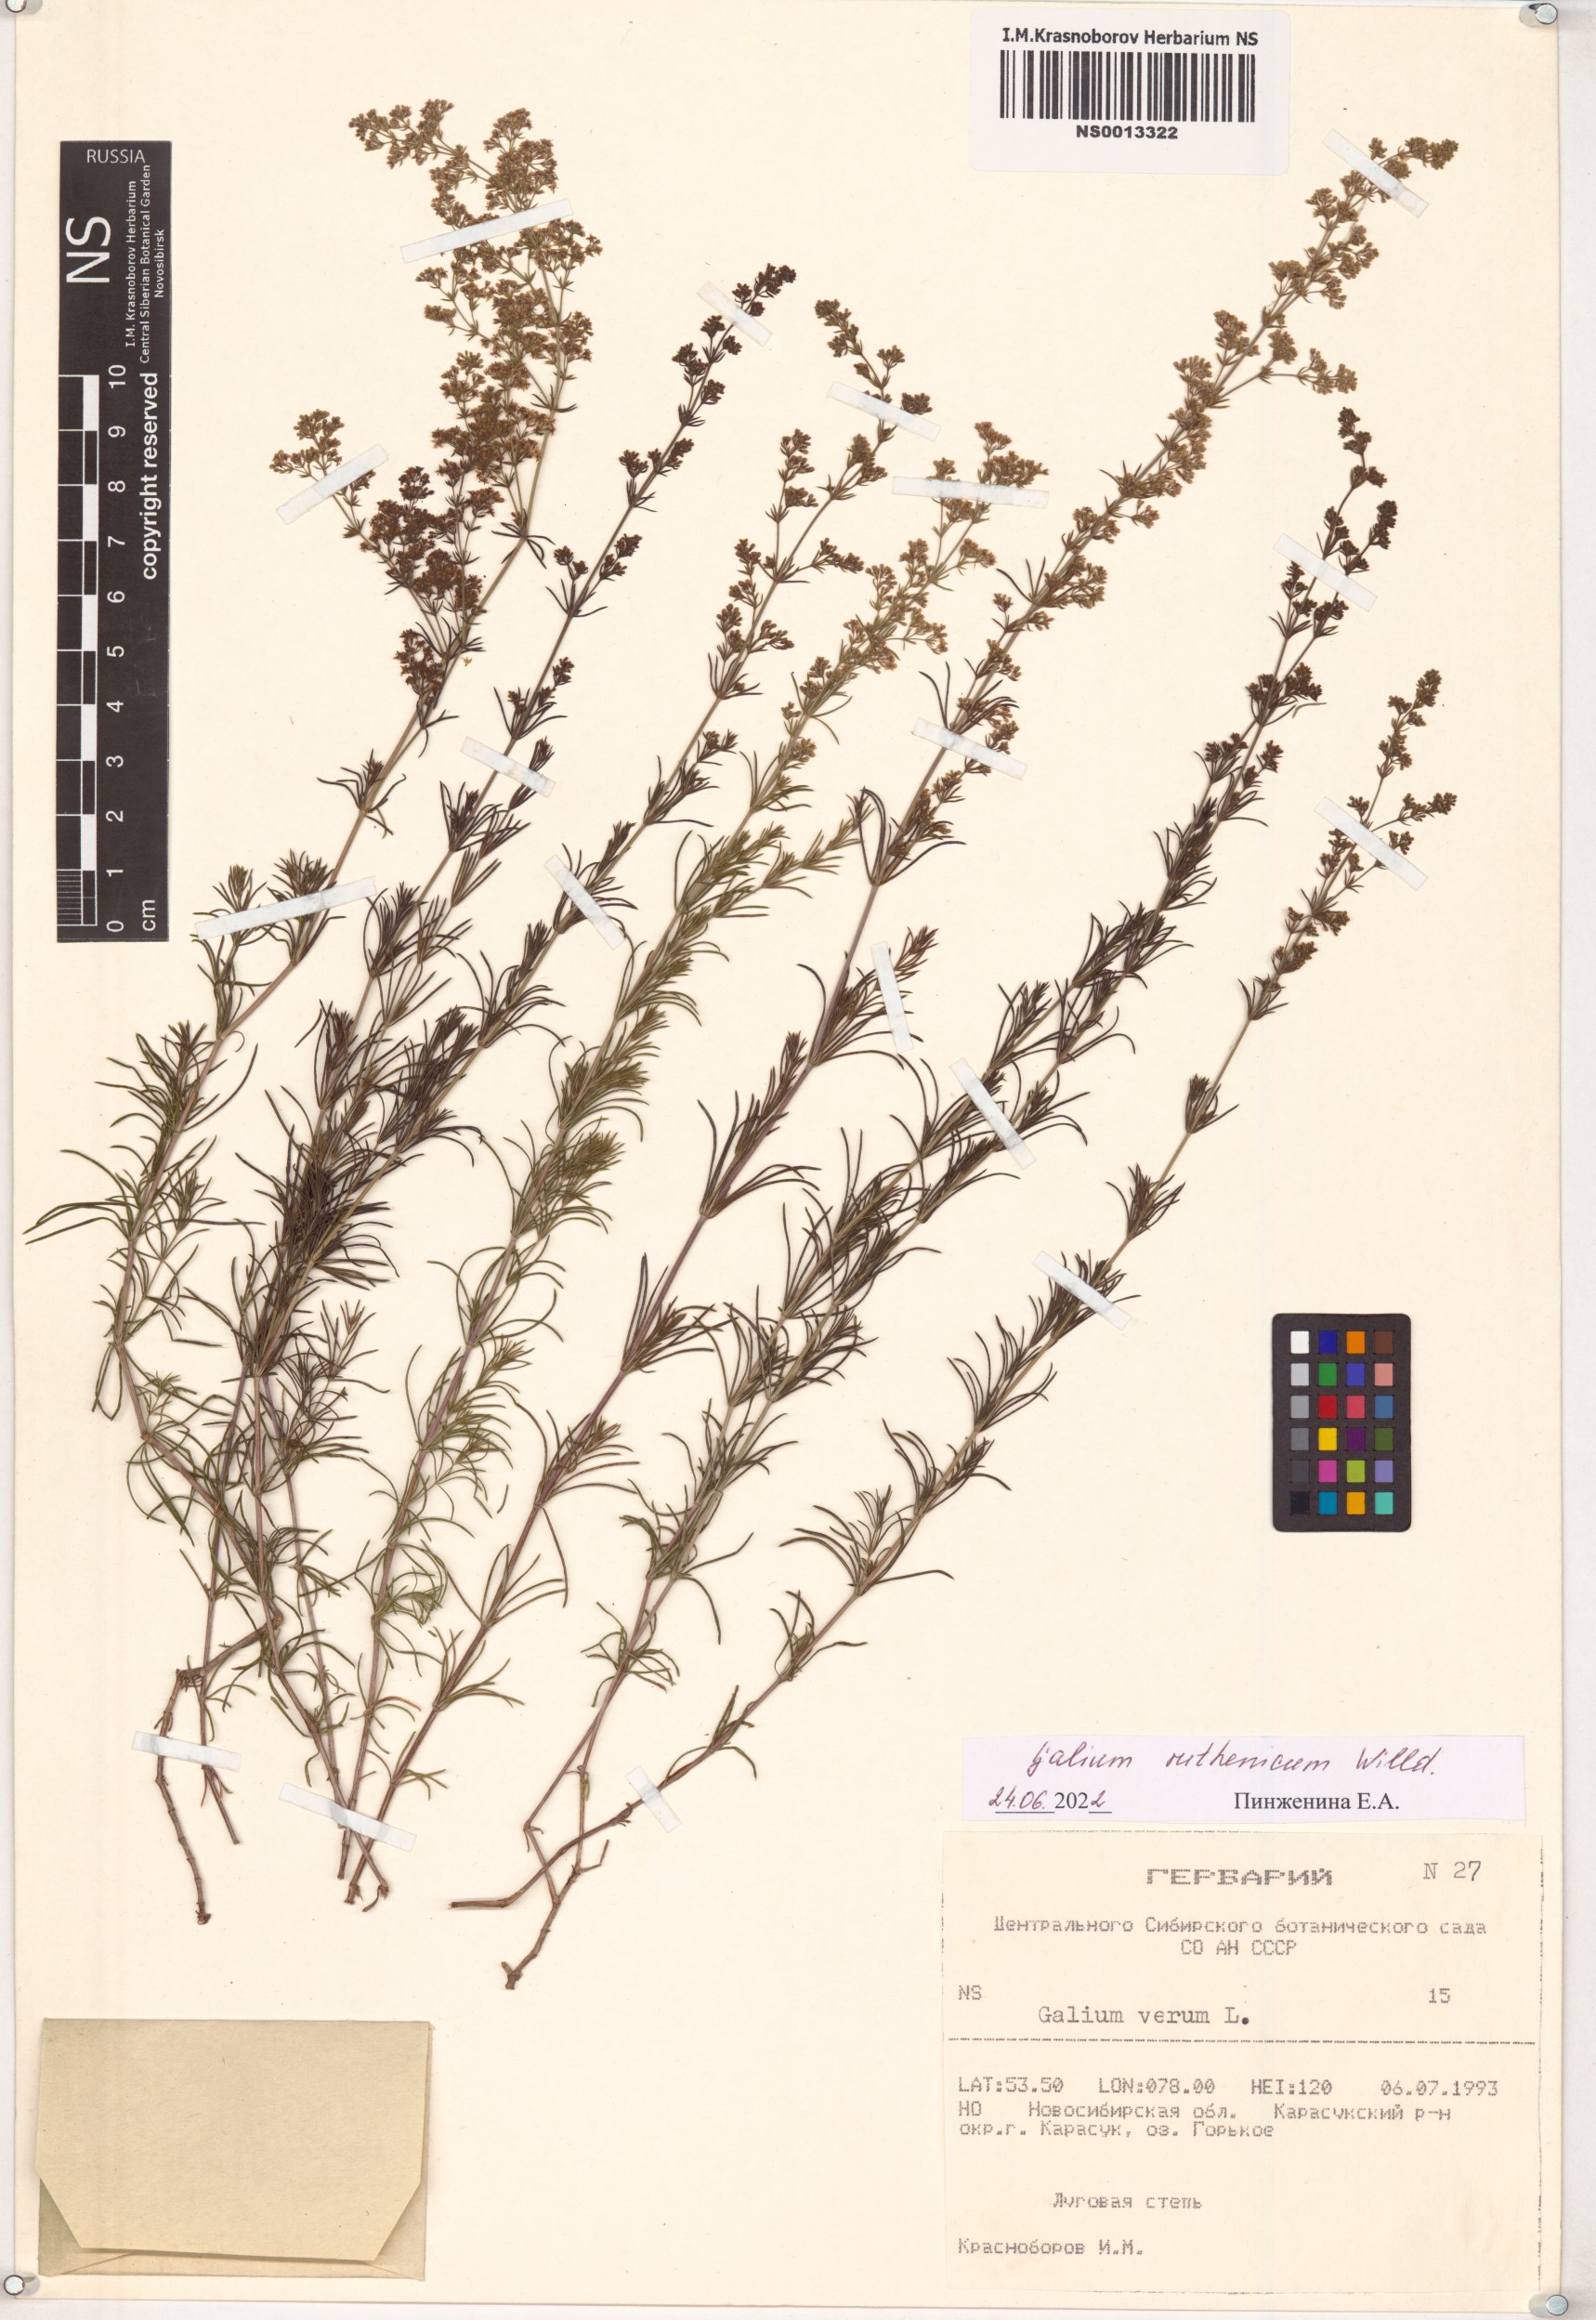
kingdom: Plantae
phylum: Tracheophyta
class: Magnoliopsida
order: Gentianales
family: Rubiaceae
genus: Galium
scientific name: Galium verum
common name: Lady's bedstraw
